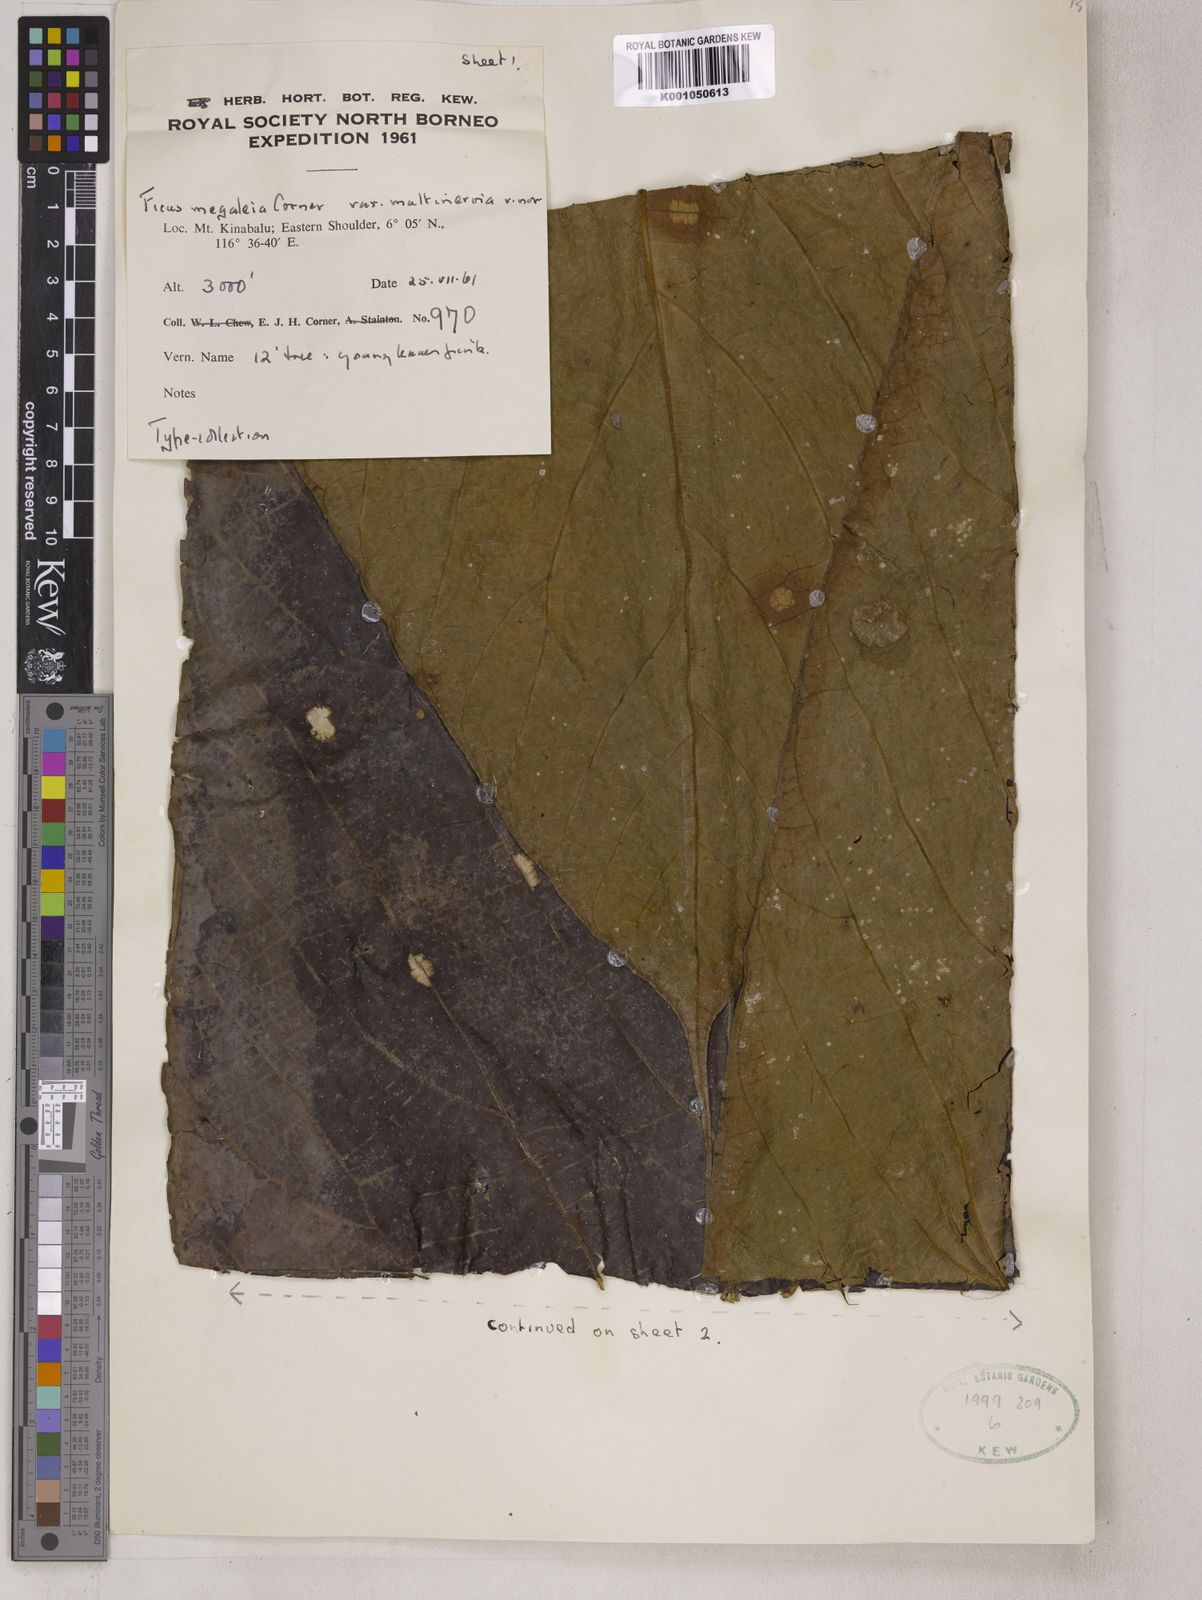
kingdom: Plantae
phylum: Tracheophyta
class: Magnoliopsida
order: Rosales
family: Moraceae
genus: Ficus
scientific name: Ficus megaleia
